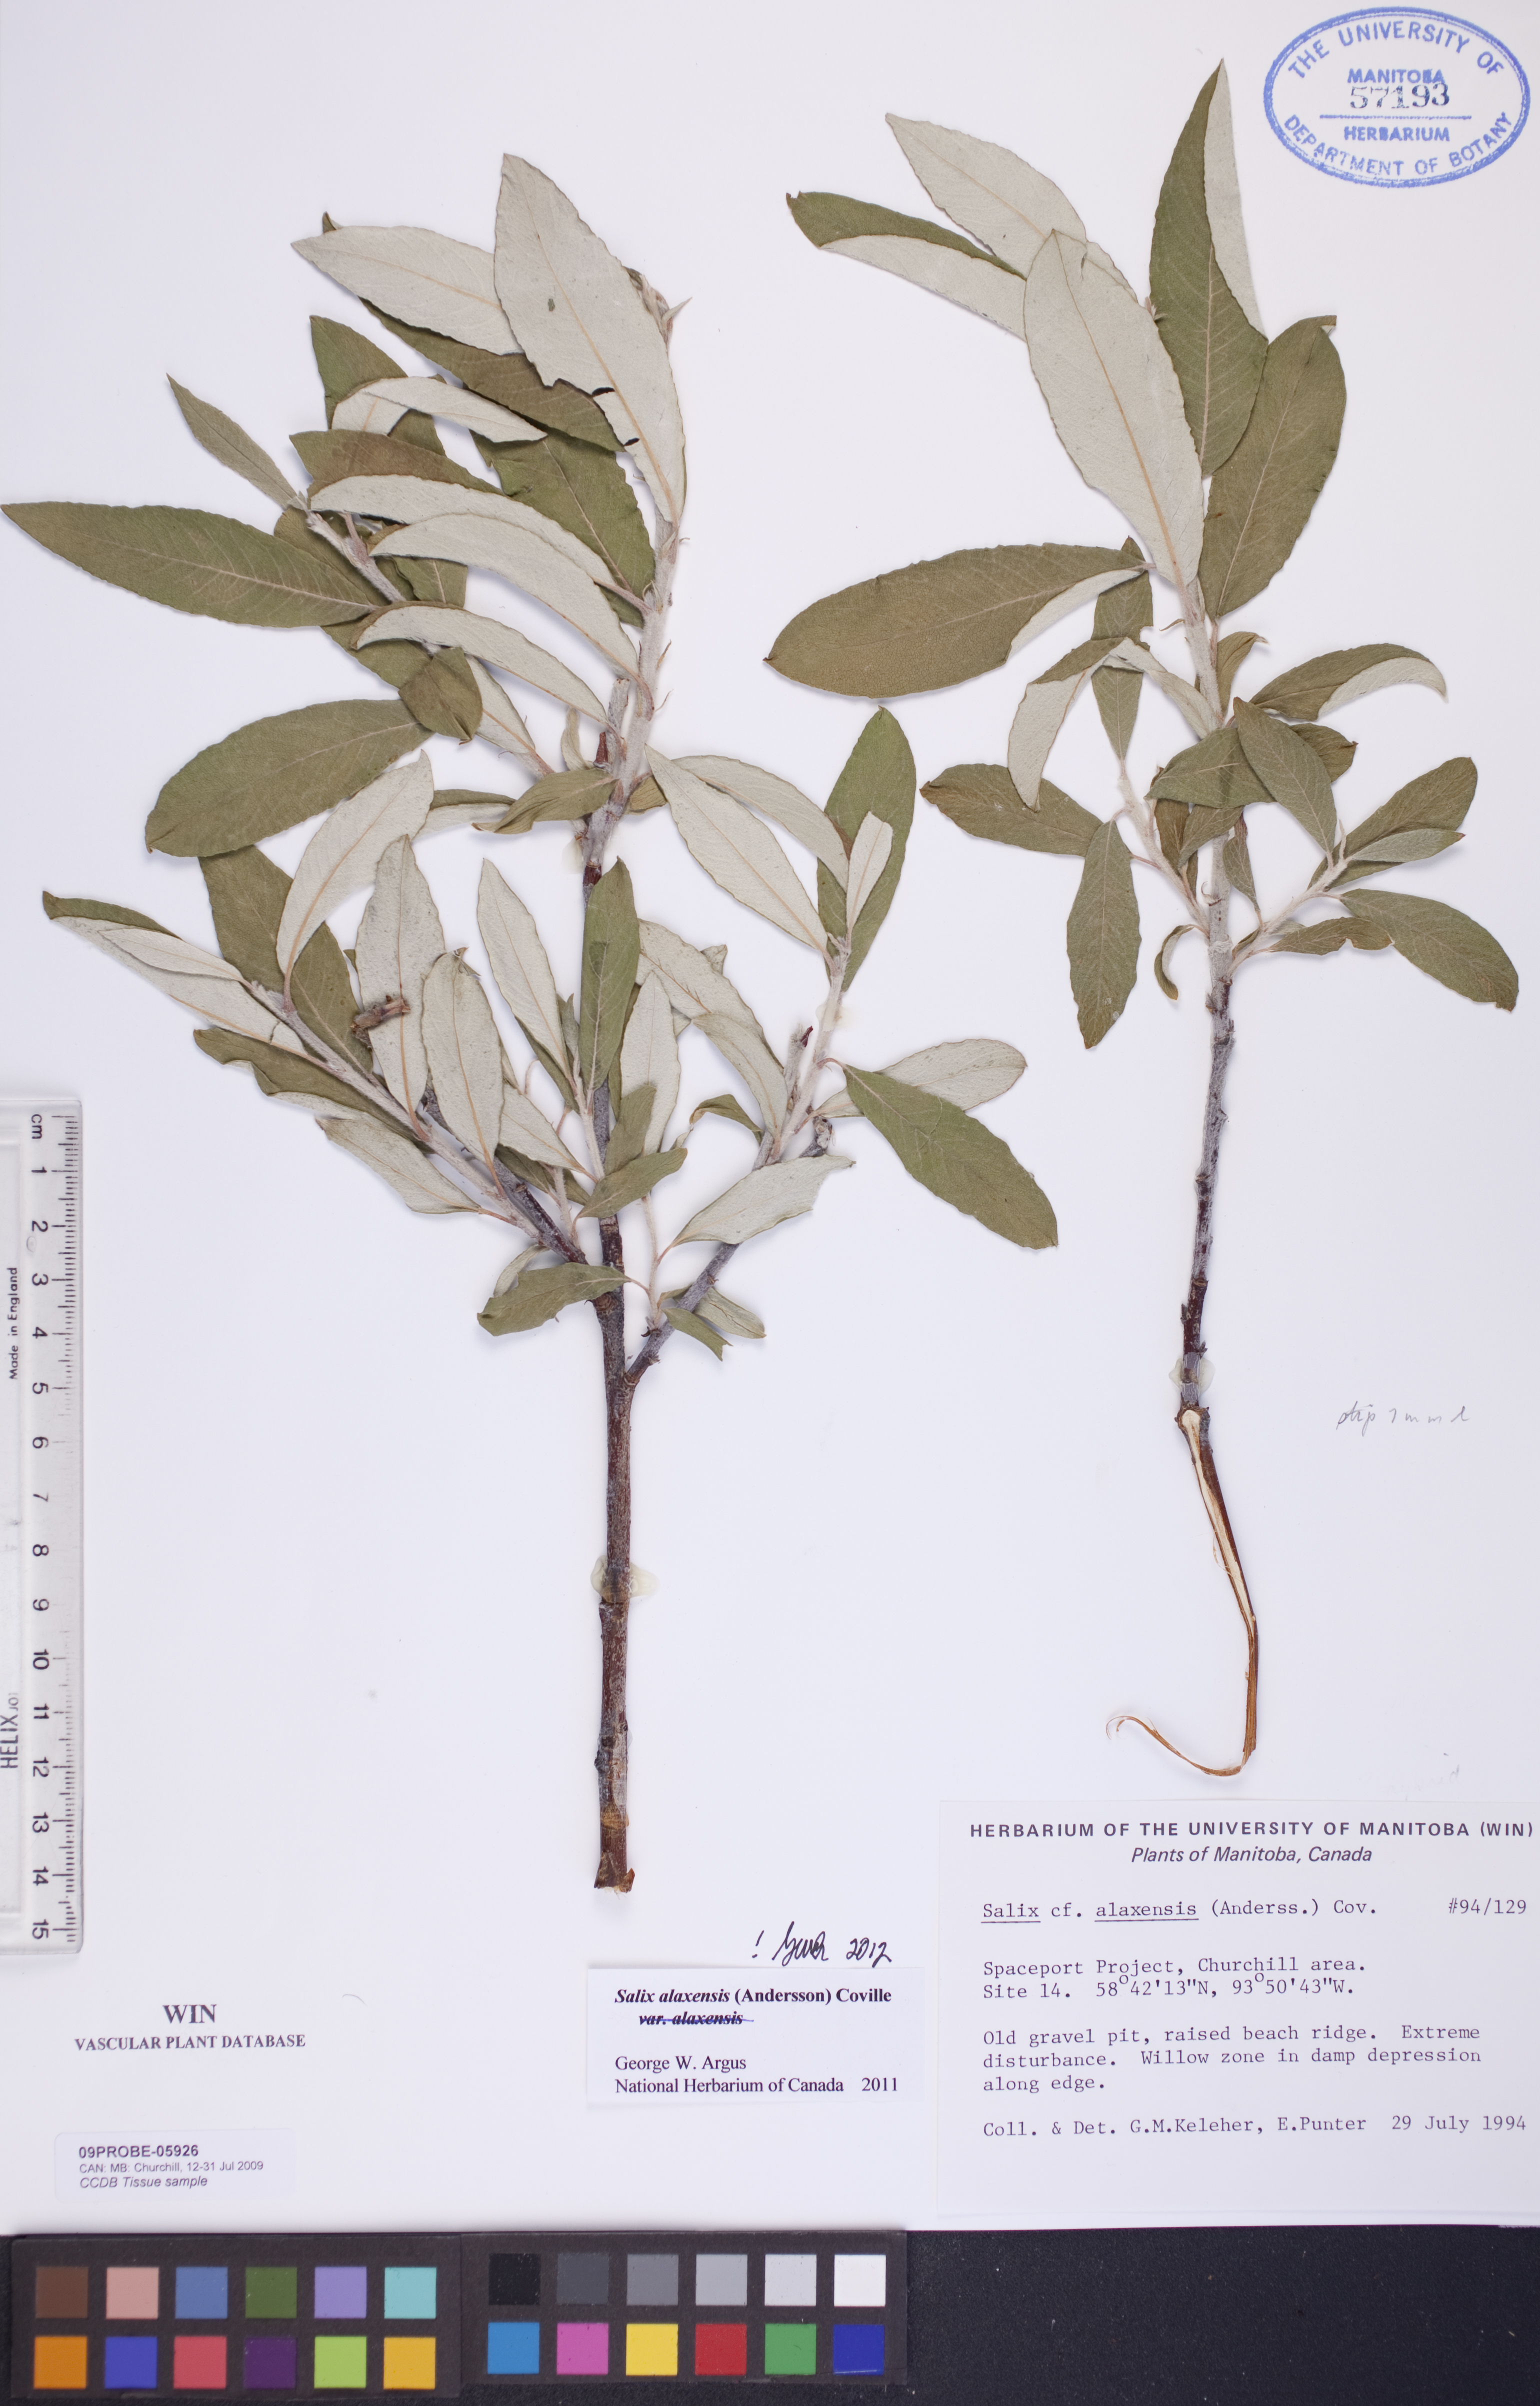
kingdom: Plantae
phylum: Tracheophyta
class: Magnoliopsida
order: Malpighiales
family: Salicaceae
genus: Salix
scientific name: Salix alaxensis
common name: Feltleaf willow
